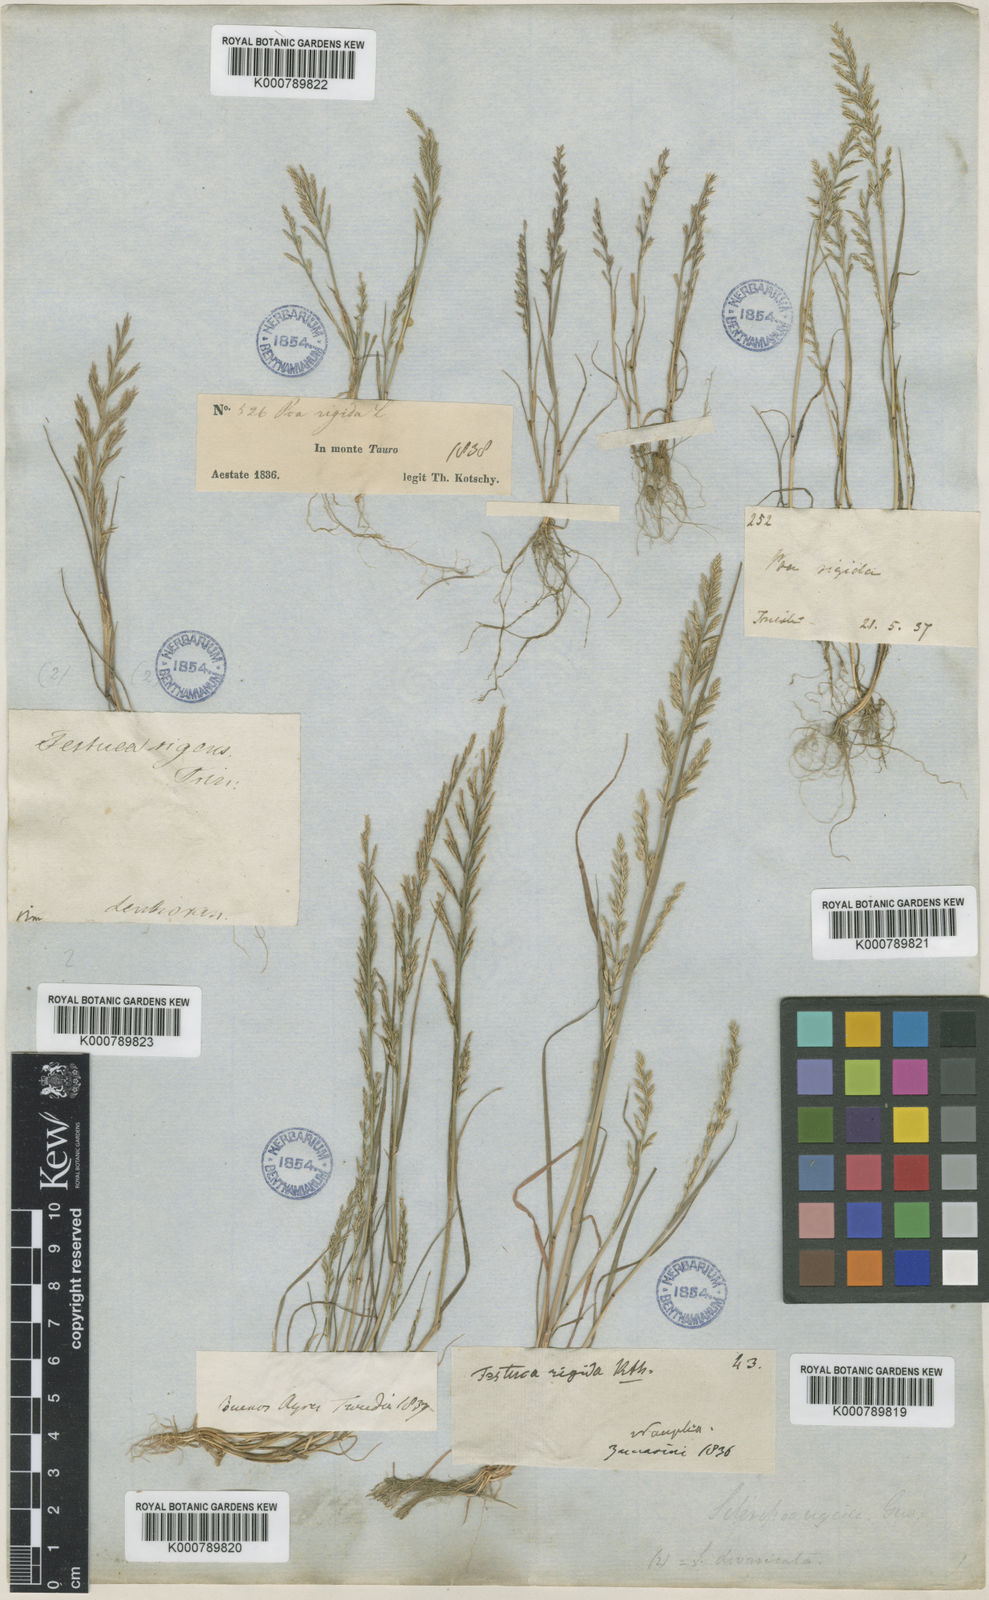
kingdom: Plantae
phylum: Tracheophyta
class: Liliopsida
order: Poales
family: Poaceae
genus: Catapodium
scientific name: Catapodium rigidum
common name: Fern-grass
